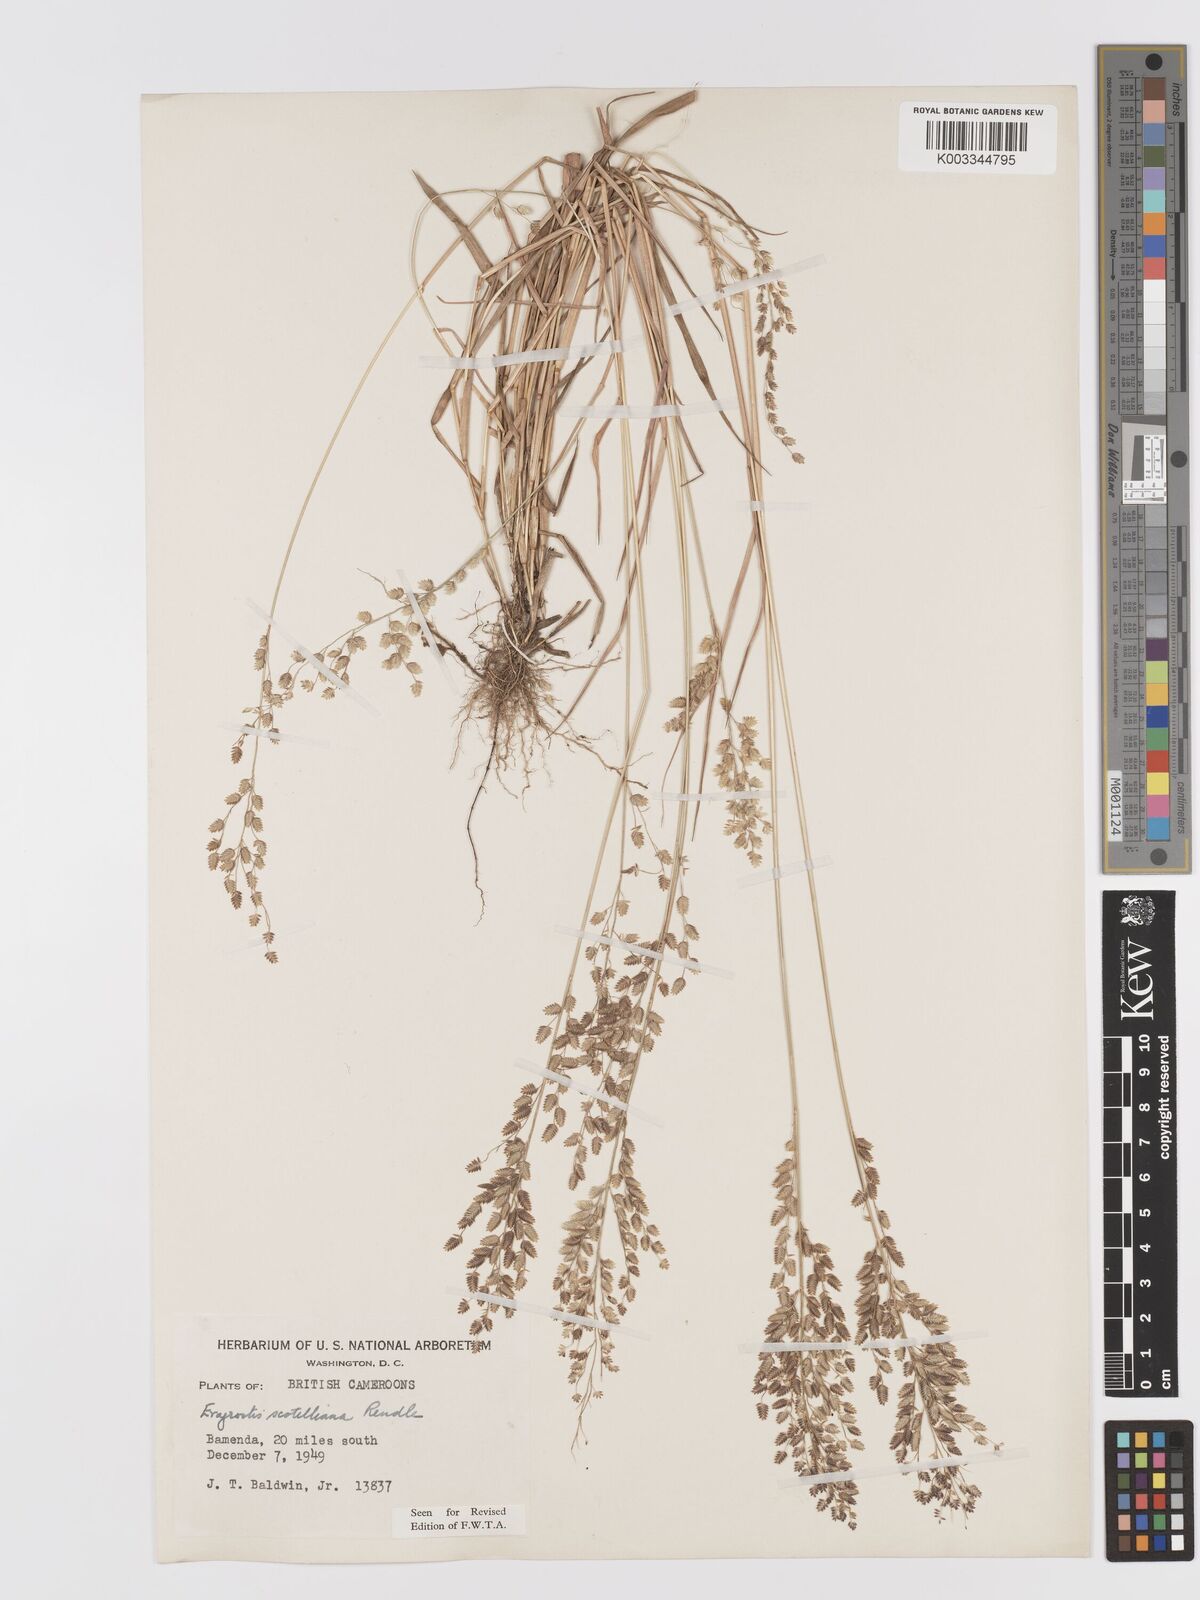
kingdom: Plantae
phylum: Tracheophyta
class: Liliopsida
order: Poales
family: Poaceae
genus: Eragrostis
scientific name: Eragrostis scotelliana
